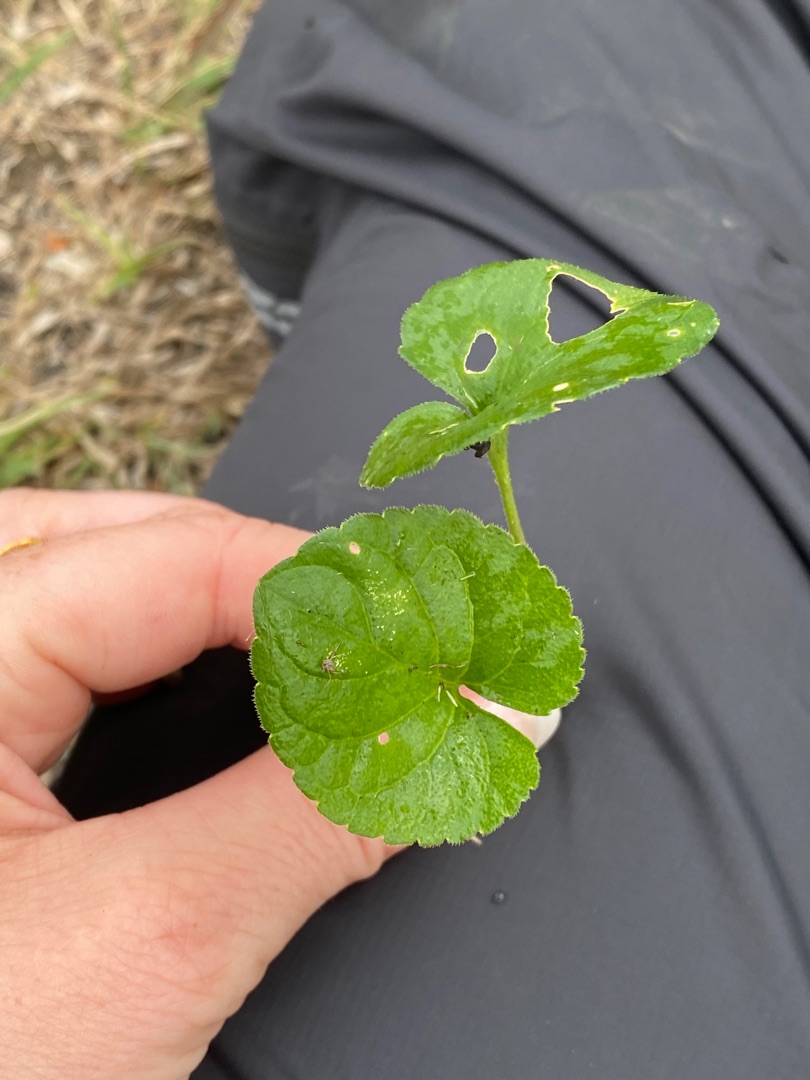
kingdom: Plantae
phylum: Tracheophyta
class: Magnoliopsida
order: Malpighiales
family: Violaceae
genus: Viola
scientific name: Viola odorata
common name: Marts-viol
